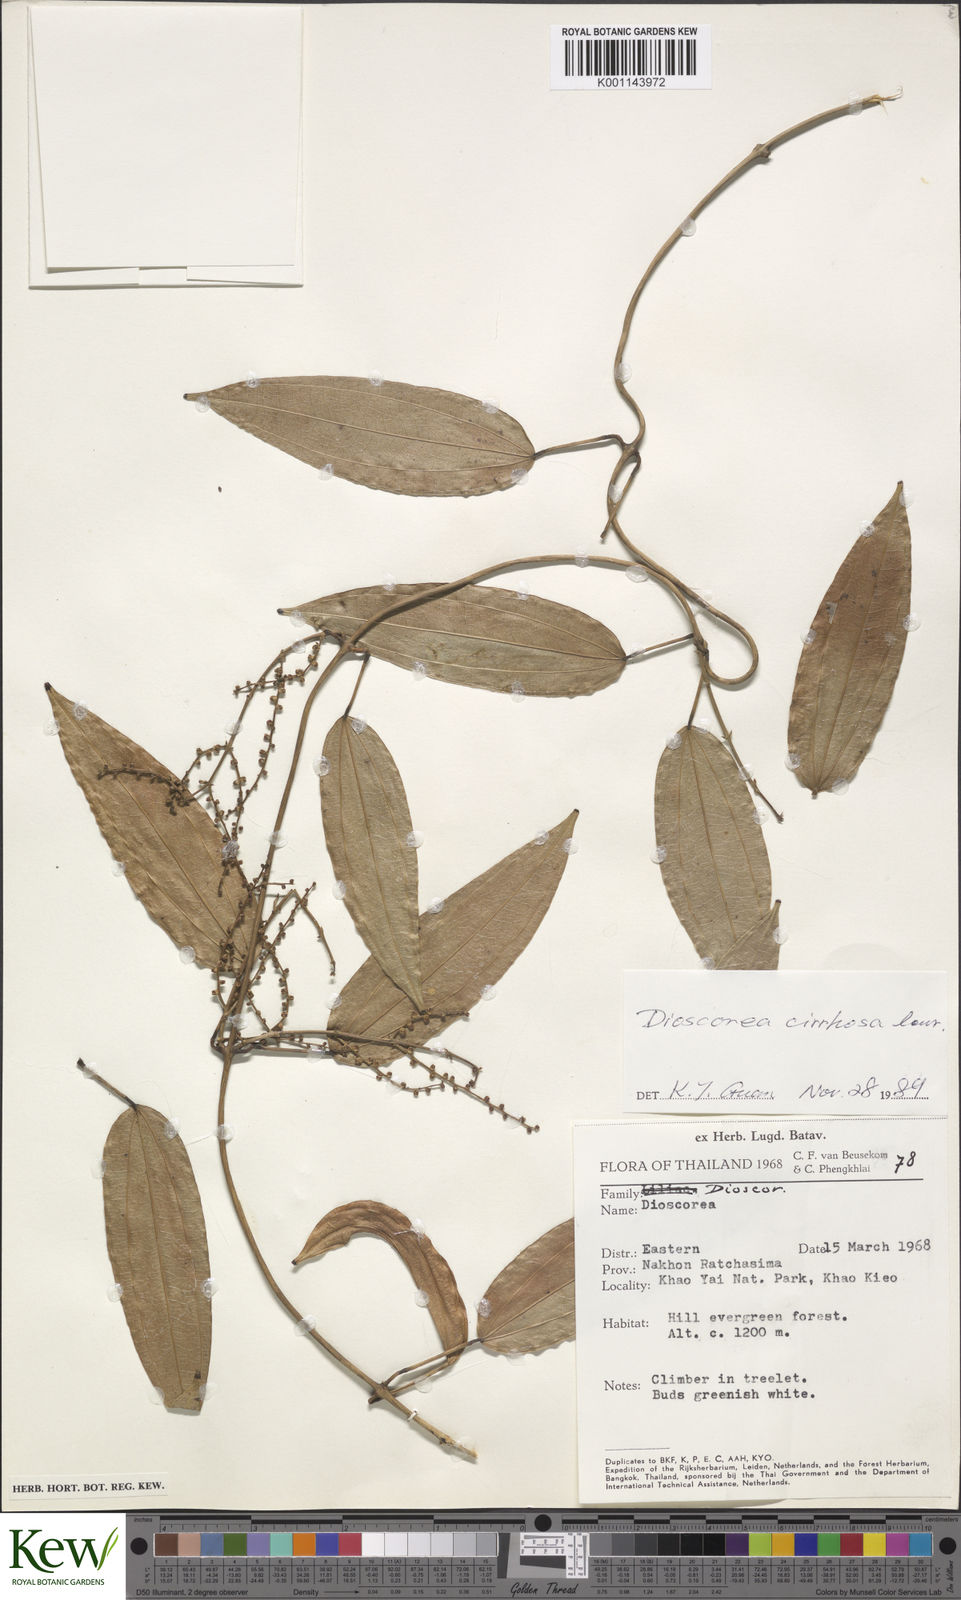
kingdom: Plantae
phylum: Tracheophyta
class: Liliopsida
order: Dioscoreales
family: Dioscoreaceae
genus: Dioscorea
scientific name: Dioscorea cirrhosa
